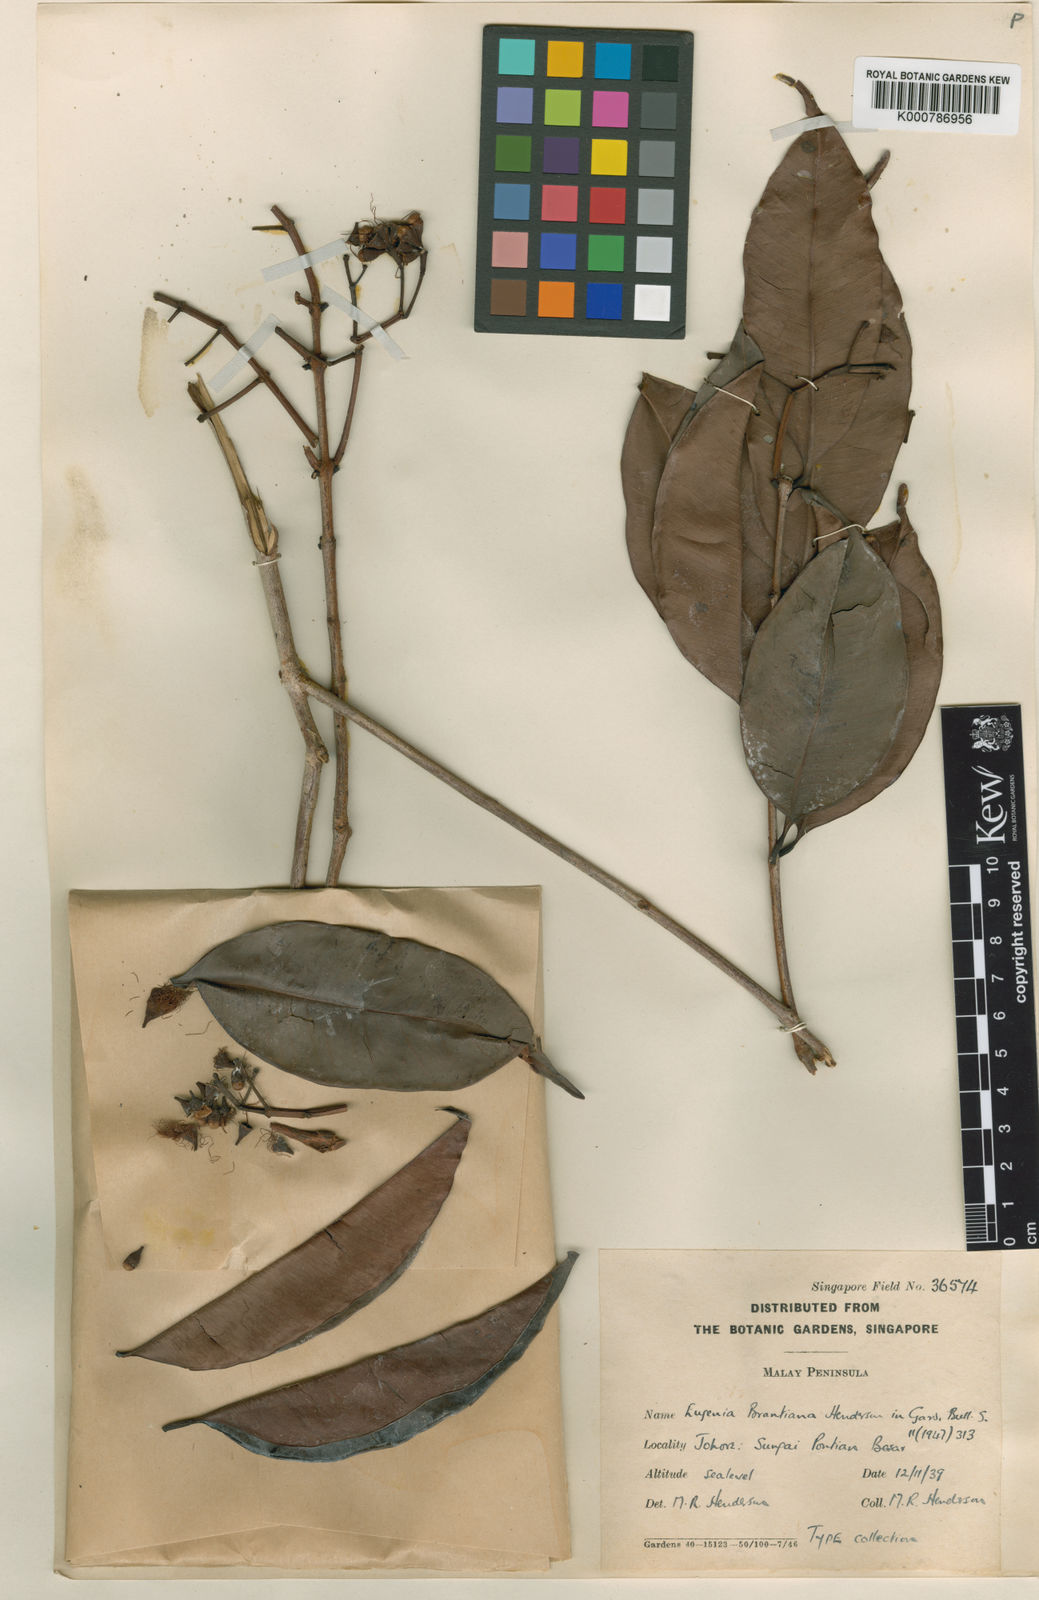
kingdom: Plantae
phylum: Tracheophyta
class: Magnoliopsida
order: Myrtales
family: Myrtaceae
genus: Syzygium
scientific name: Syzygium
